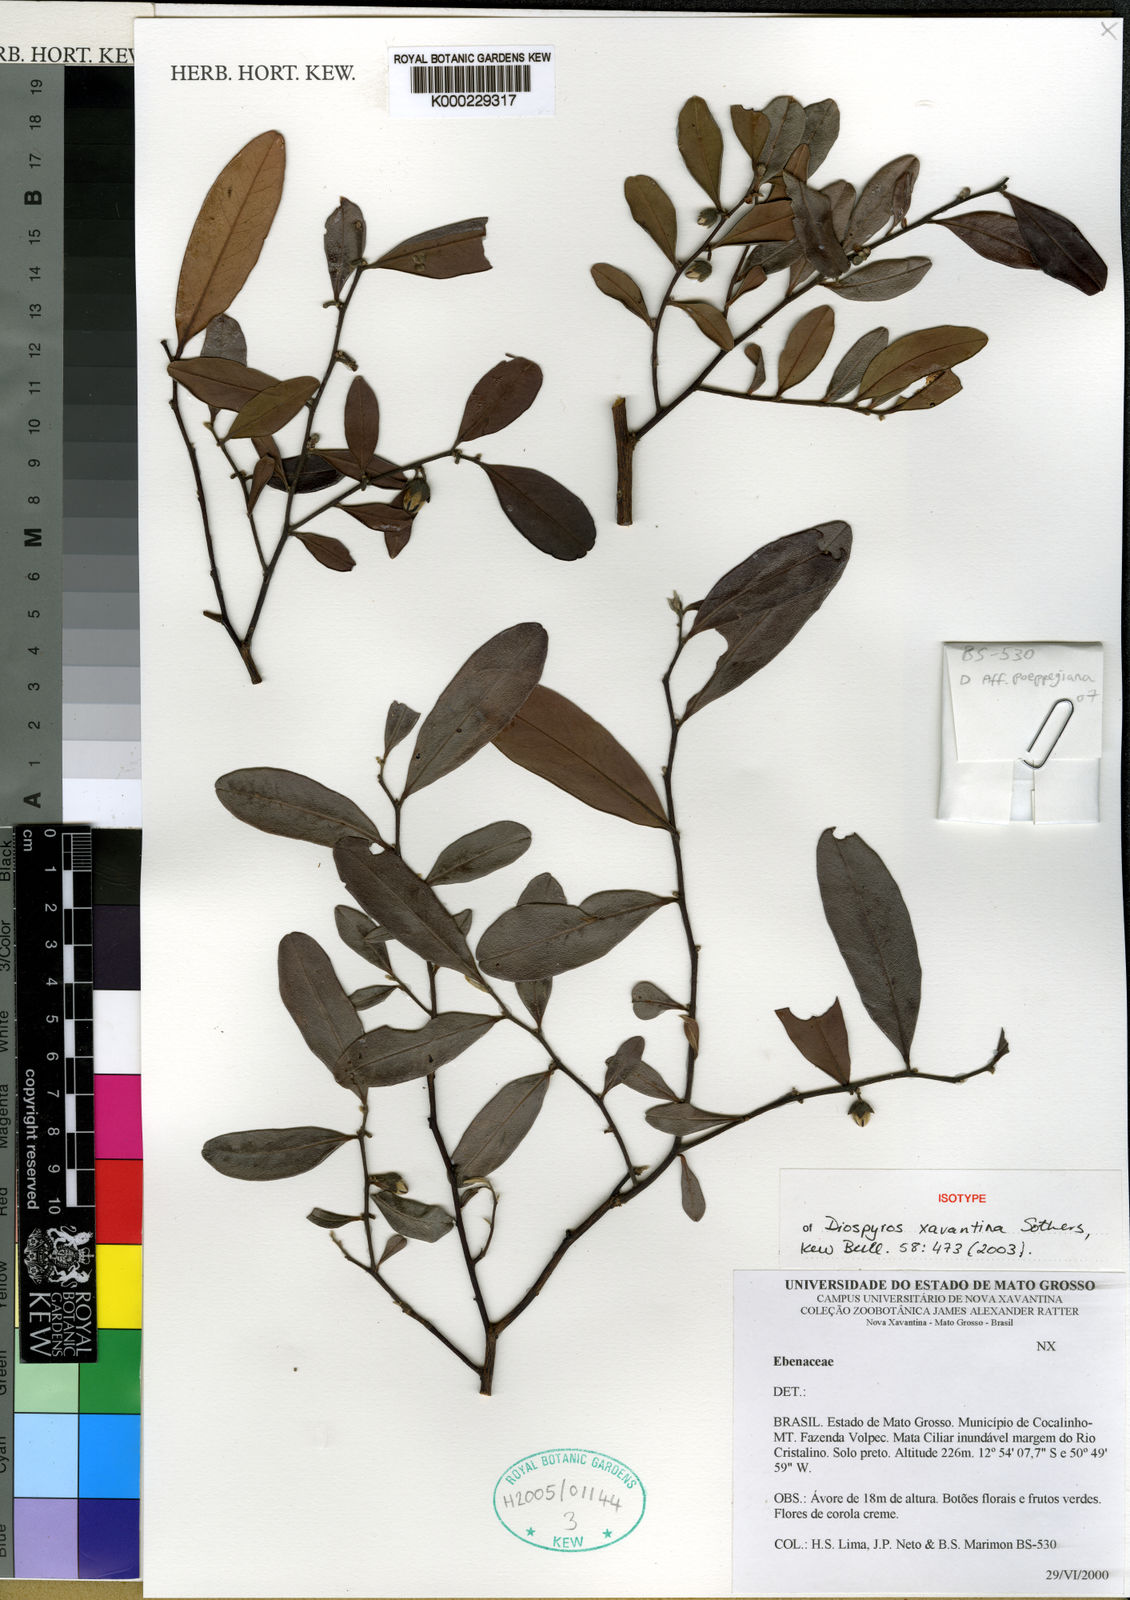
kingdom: Plantae
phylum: Tracheophyta
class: Magnoliopsida
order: Ericales
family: Ebenaceae
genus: Diospyros
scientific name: Diospyros xavantina
